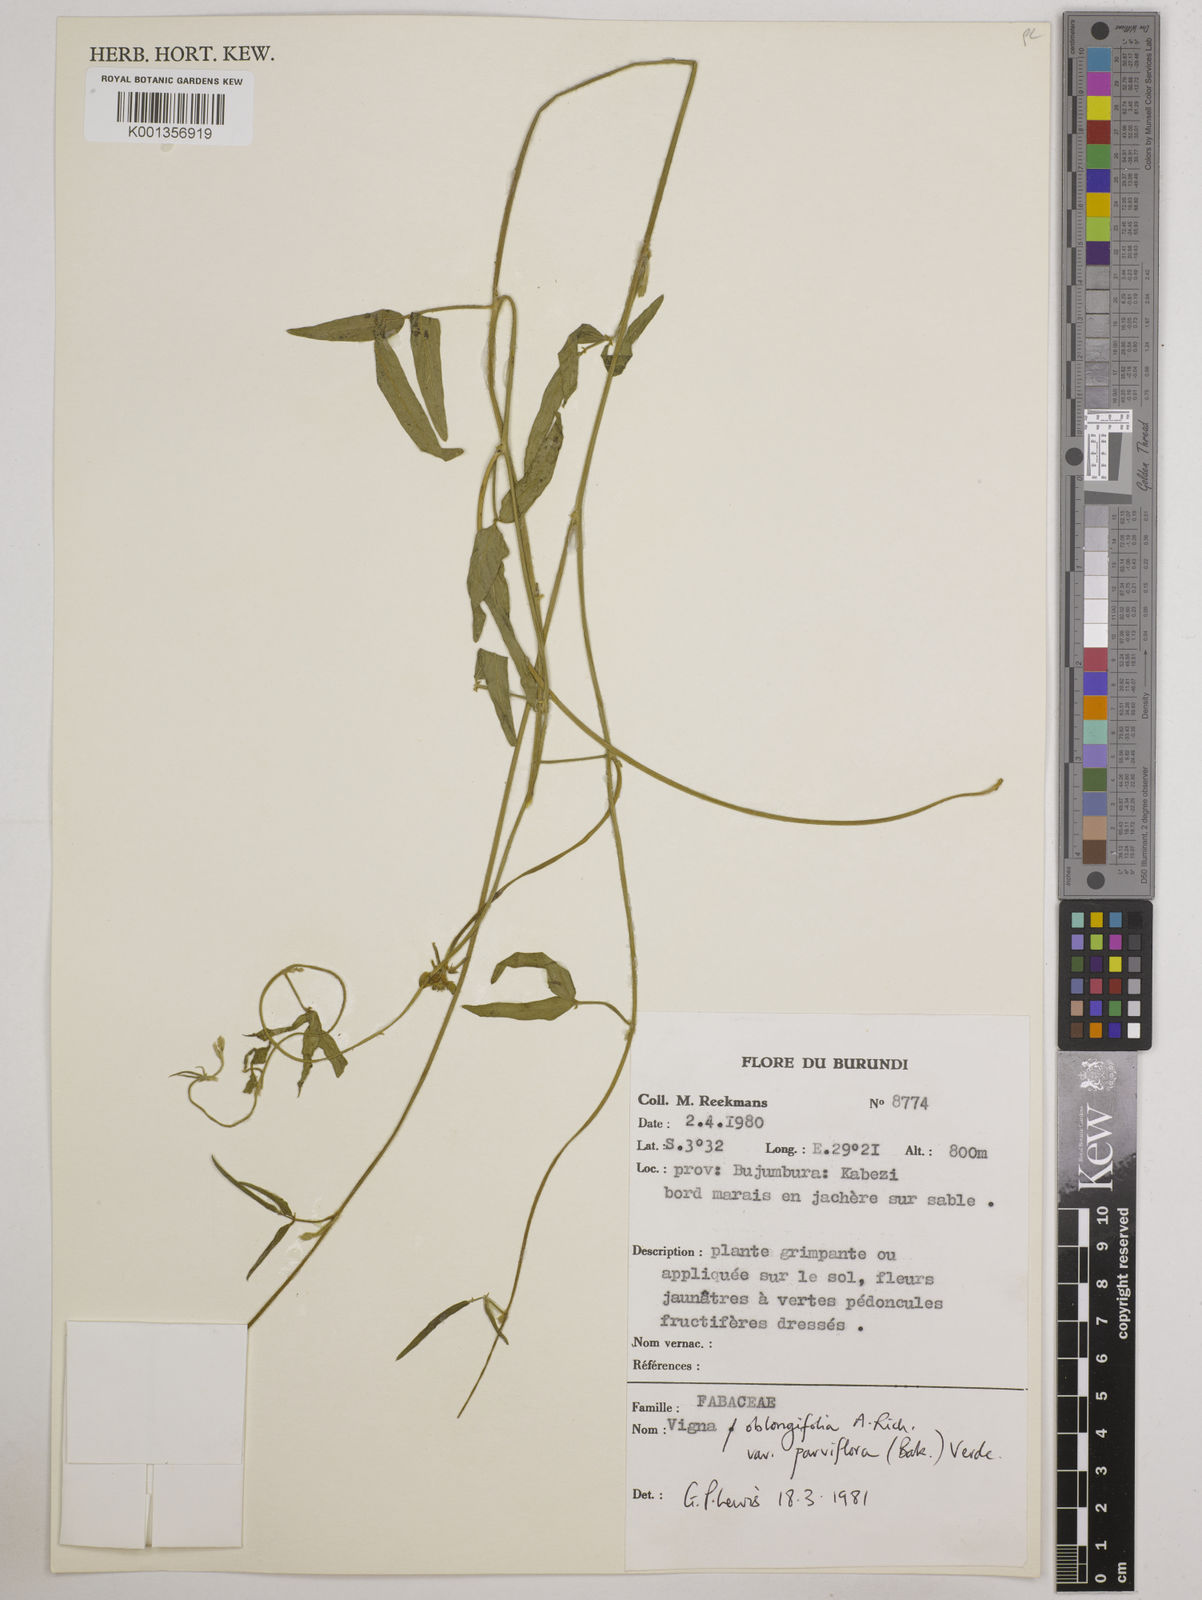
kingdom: Plantae
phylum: Tracheophyta
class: Magnoliopsida
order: Fabales
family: Fabaceae
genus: Vigna
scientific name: Vigna
